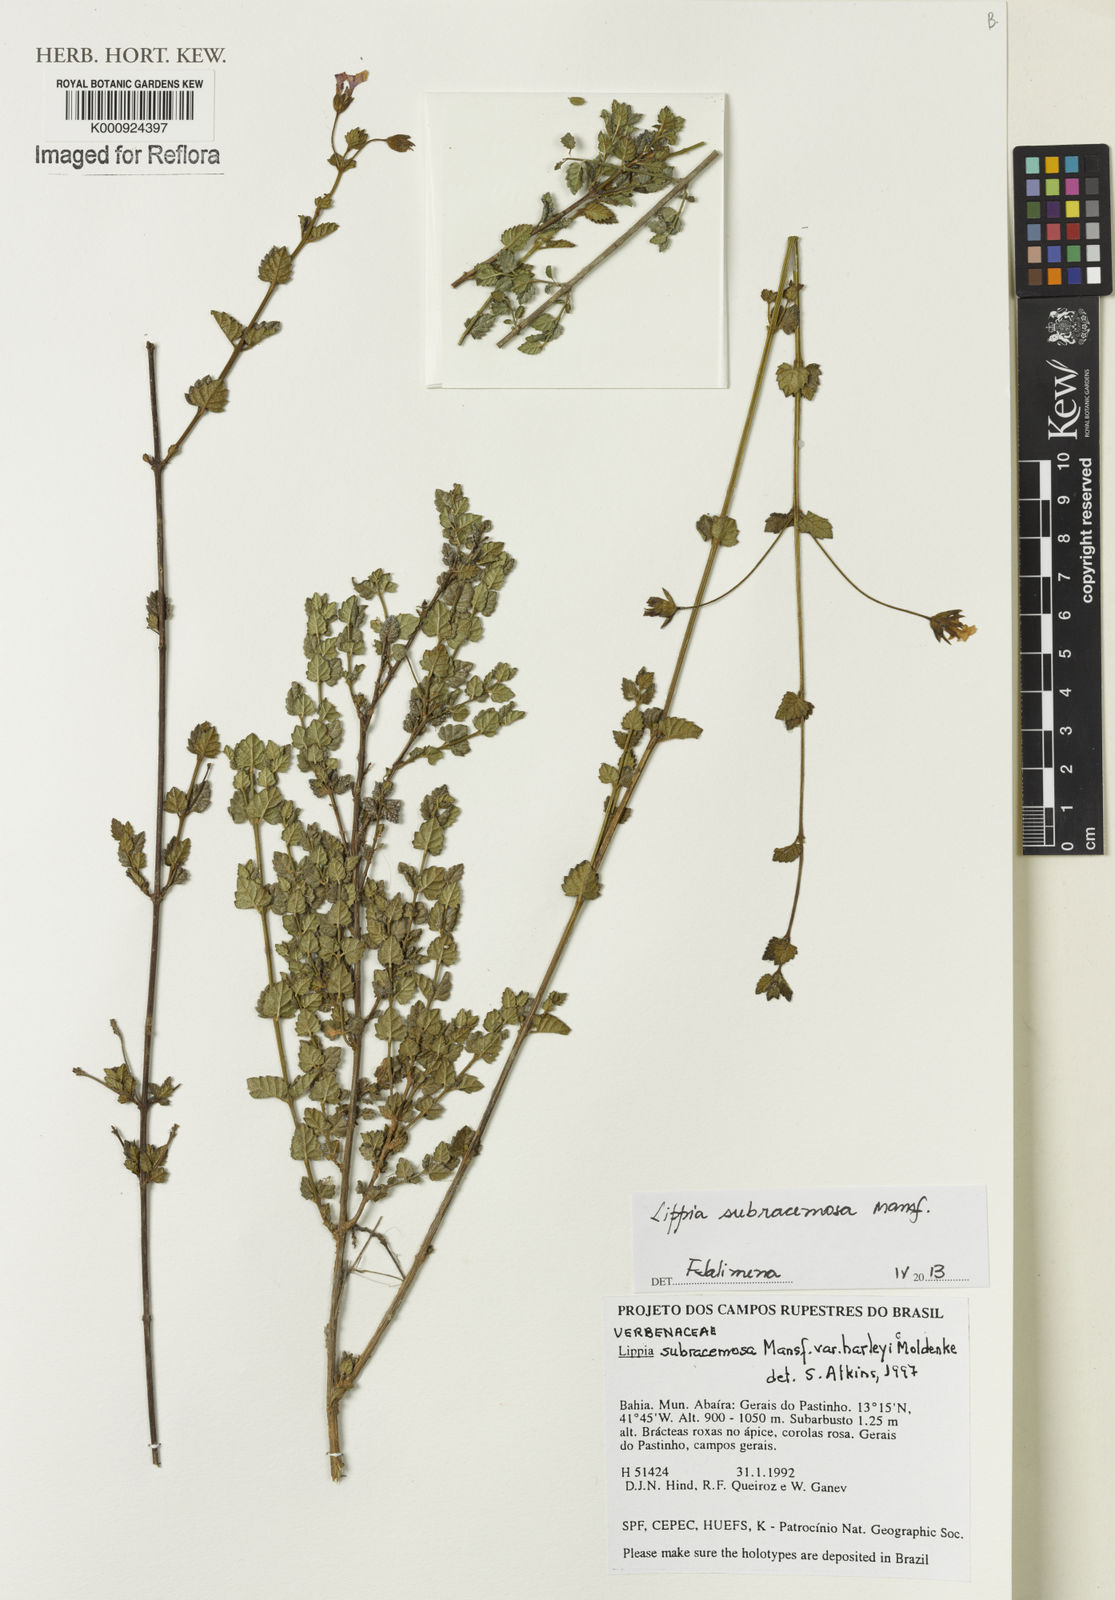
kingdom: Plantae
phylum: Tracheophyta
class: Magnoliopsida
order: Lamiales
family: Verbenaceae
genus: Lippia
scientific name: Lippia subracemosa
